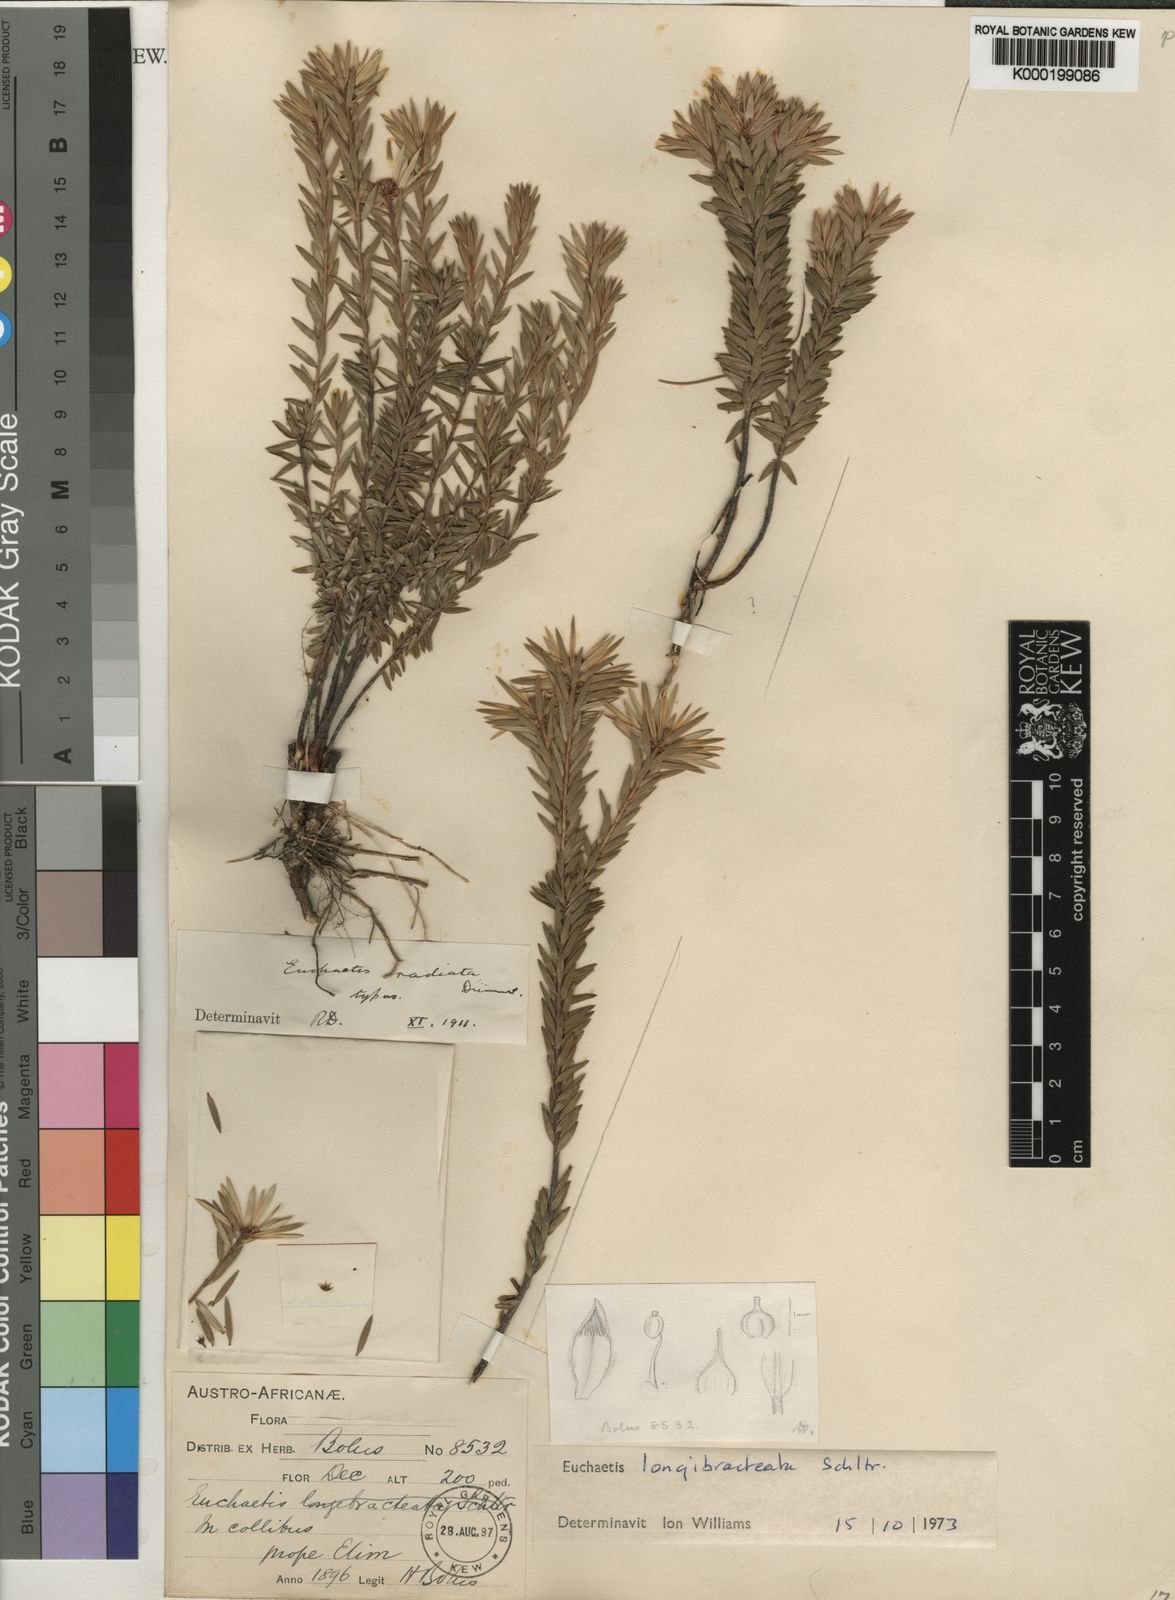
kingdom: Plantae
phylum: Tracheophyta
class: Magnoliopsida
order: Sapindales
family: Rutaceae
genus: Euchaetis
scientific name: Euchaetis longibracteata
